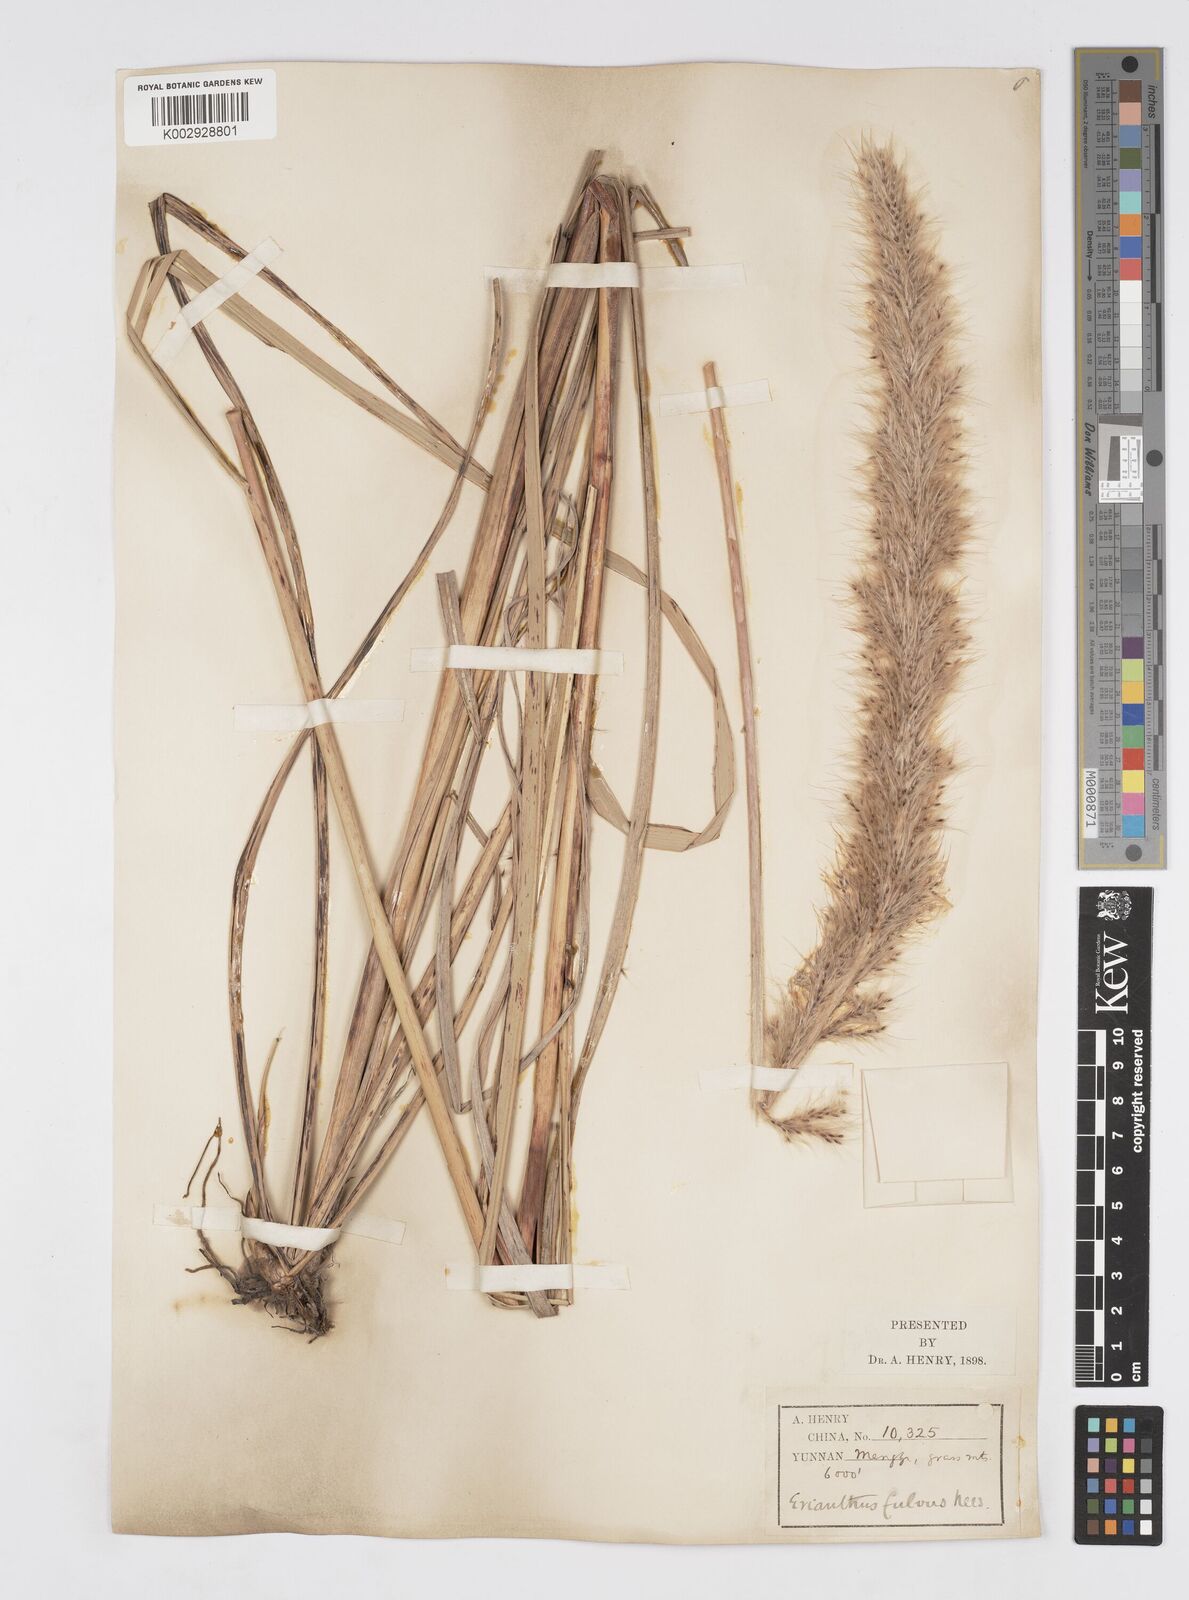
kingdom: Plantae
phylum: Tracheophyta
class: Liliopsida
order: Poales
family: Poaceae
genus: Tripidium
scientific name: Tripidium rufipilum
